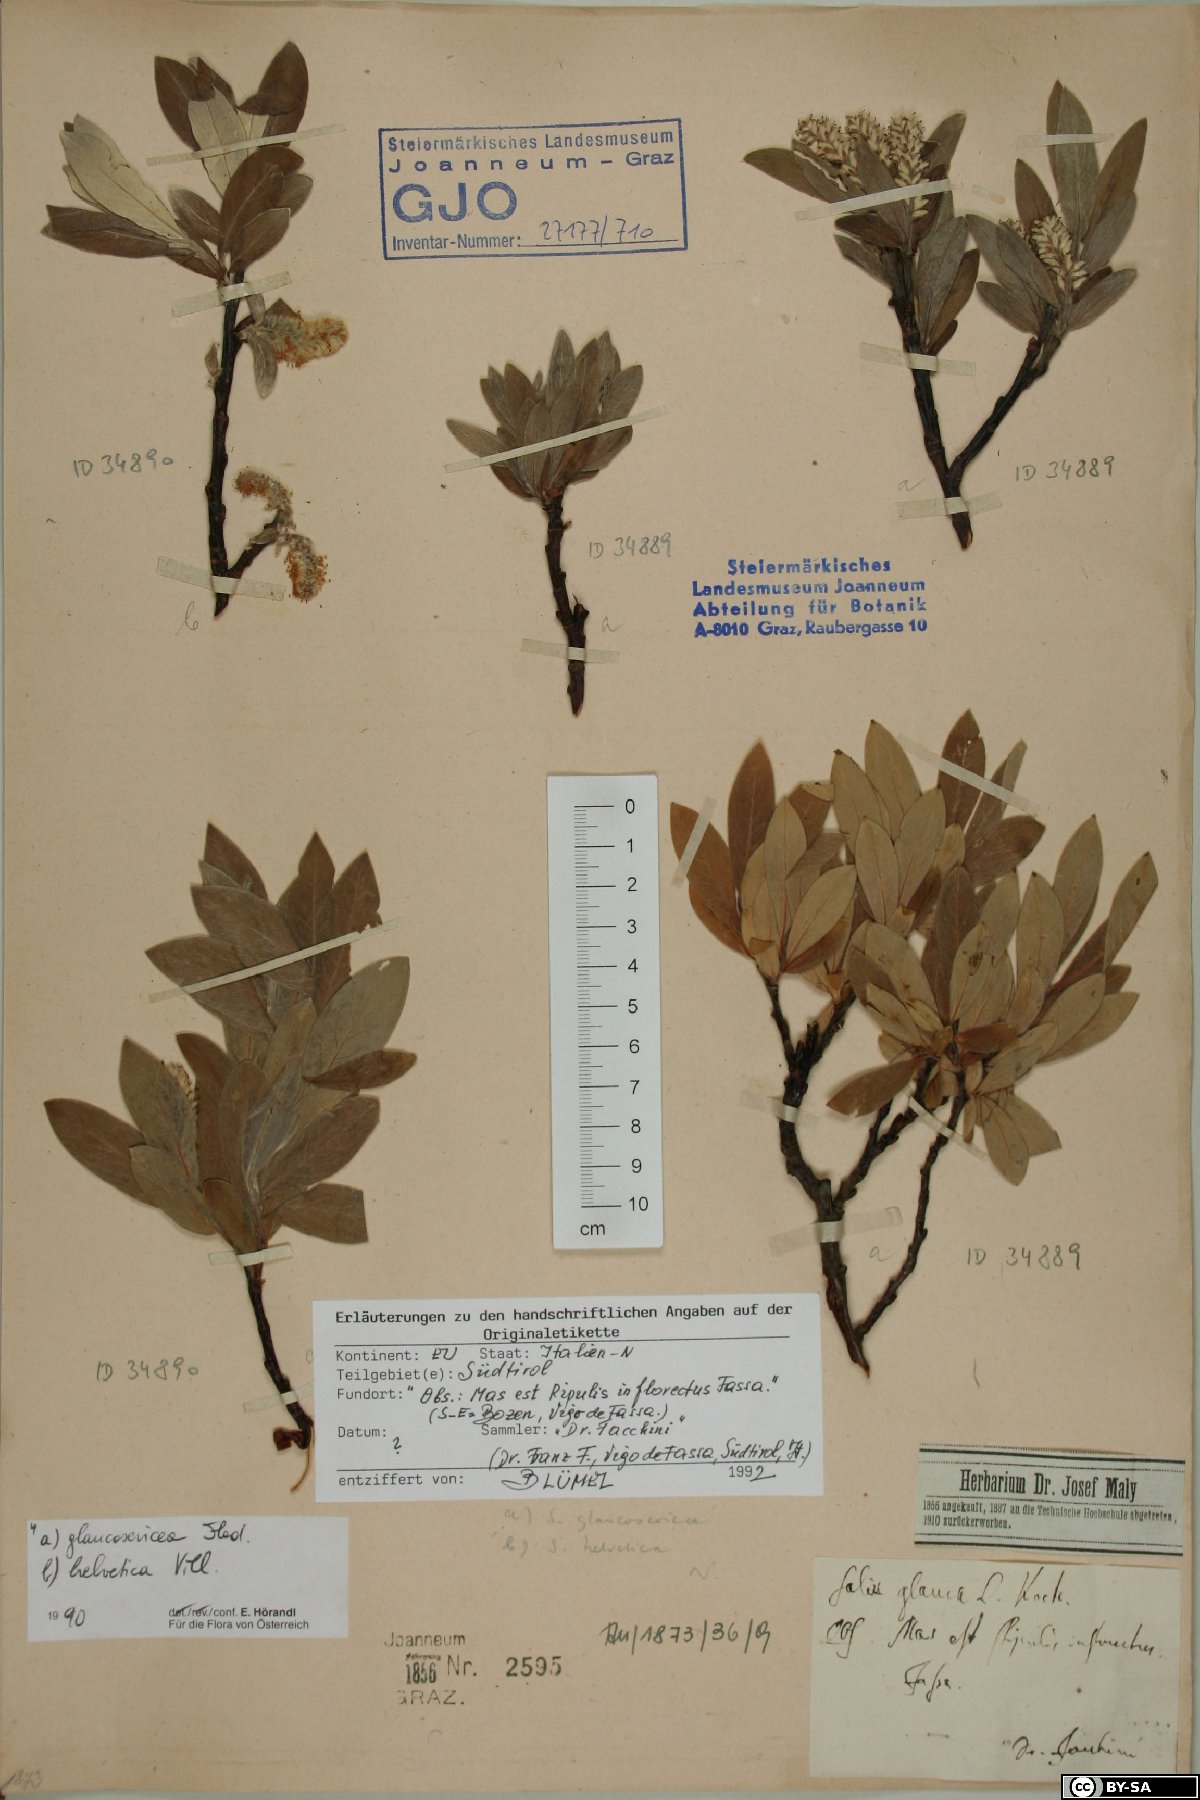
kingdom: Plantae
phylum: Tracheophyta
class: Magnoliopsida
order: Malpighiales
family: Salicaceae
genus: Salix
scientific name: Salix glaucosericea
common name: Alpine gray willow
